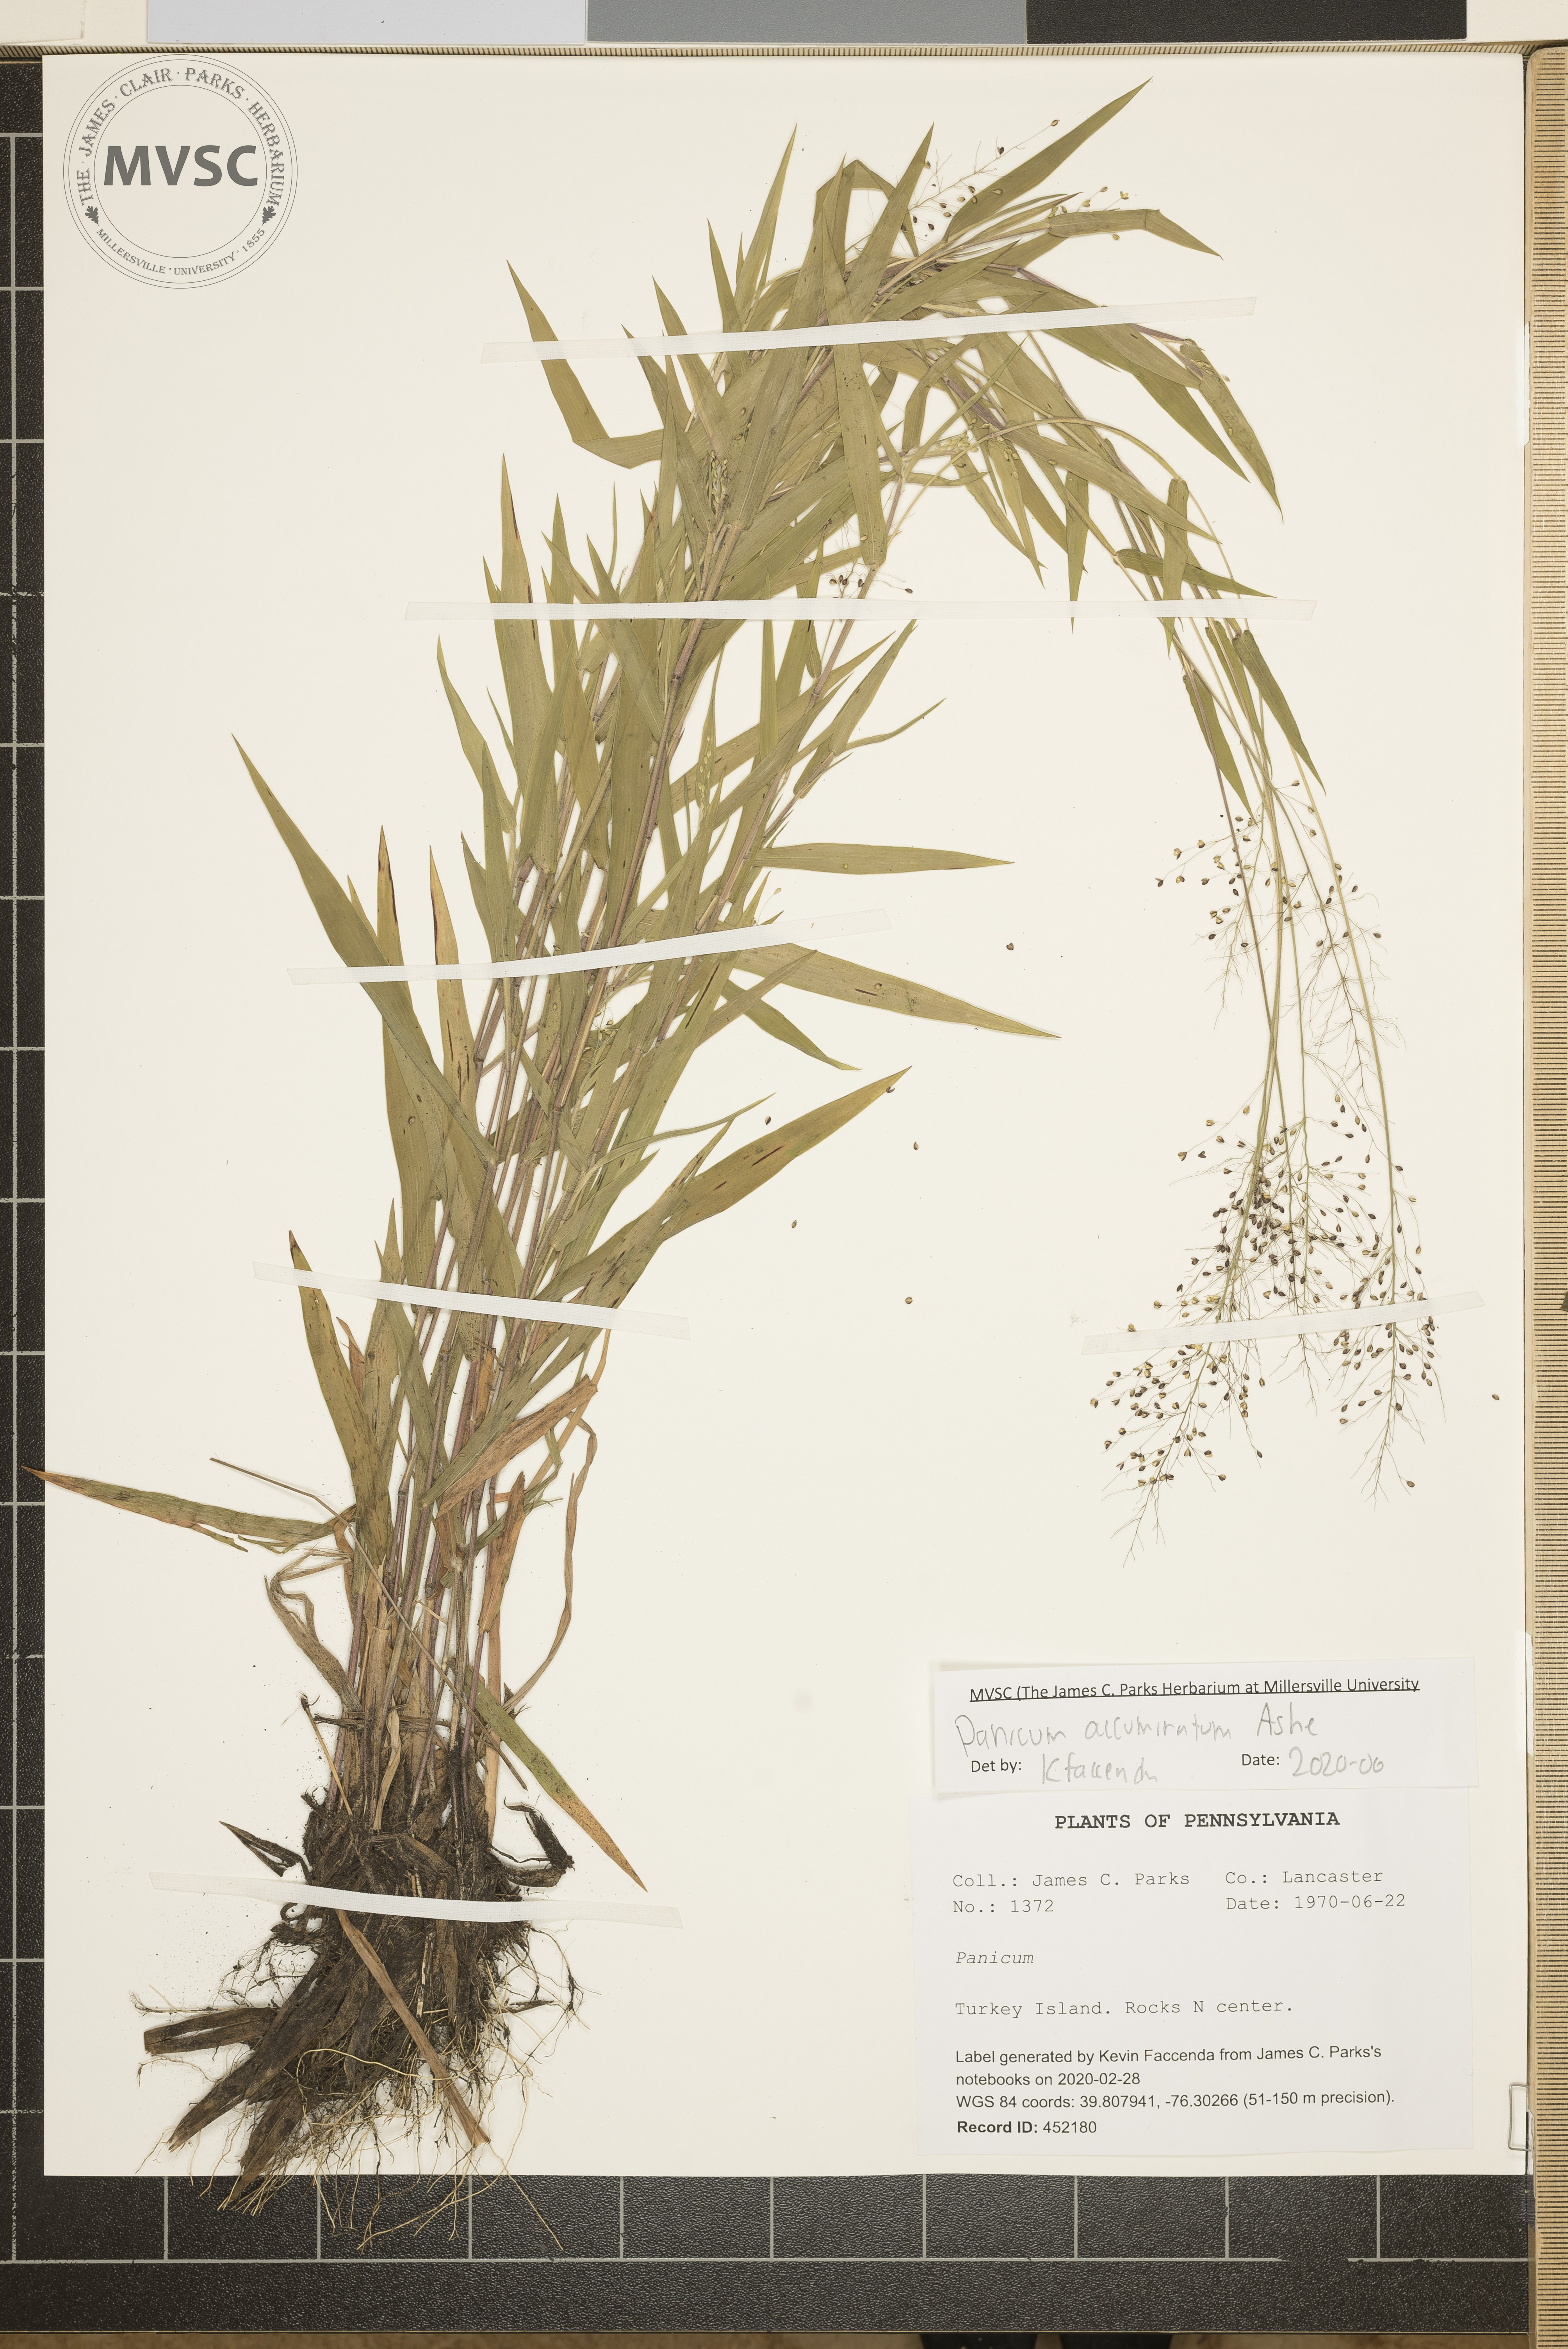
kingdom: Plantae
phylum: Tracheophyta
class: Liliopsida
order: Poales
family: Poaceae
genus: Panicum
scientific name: Panicum acuminatum
